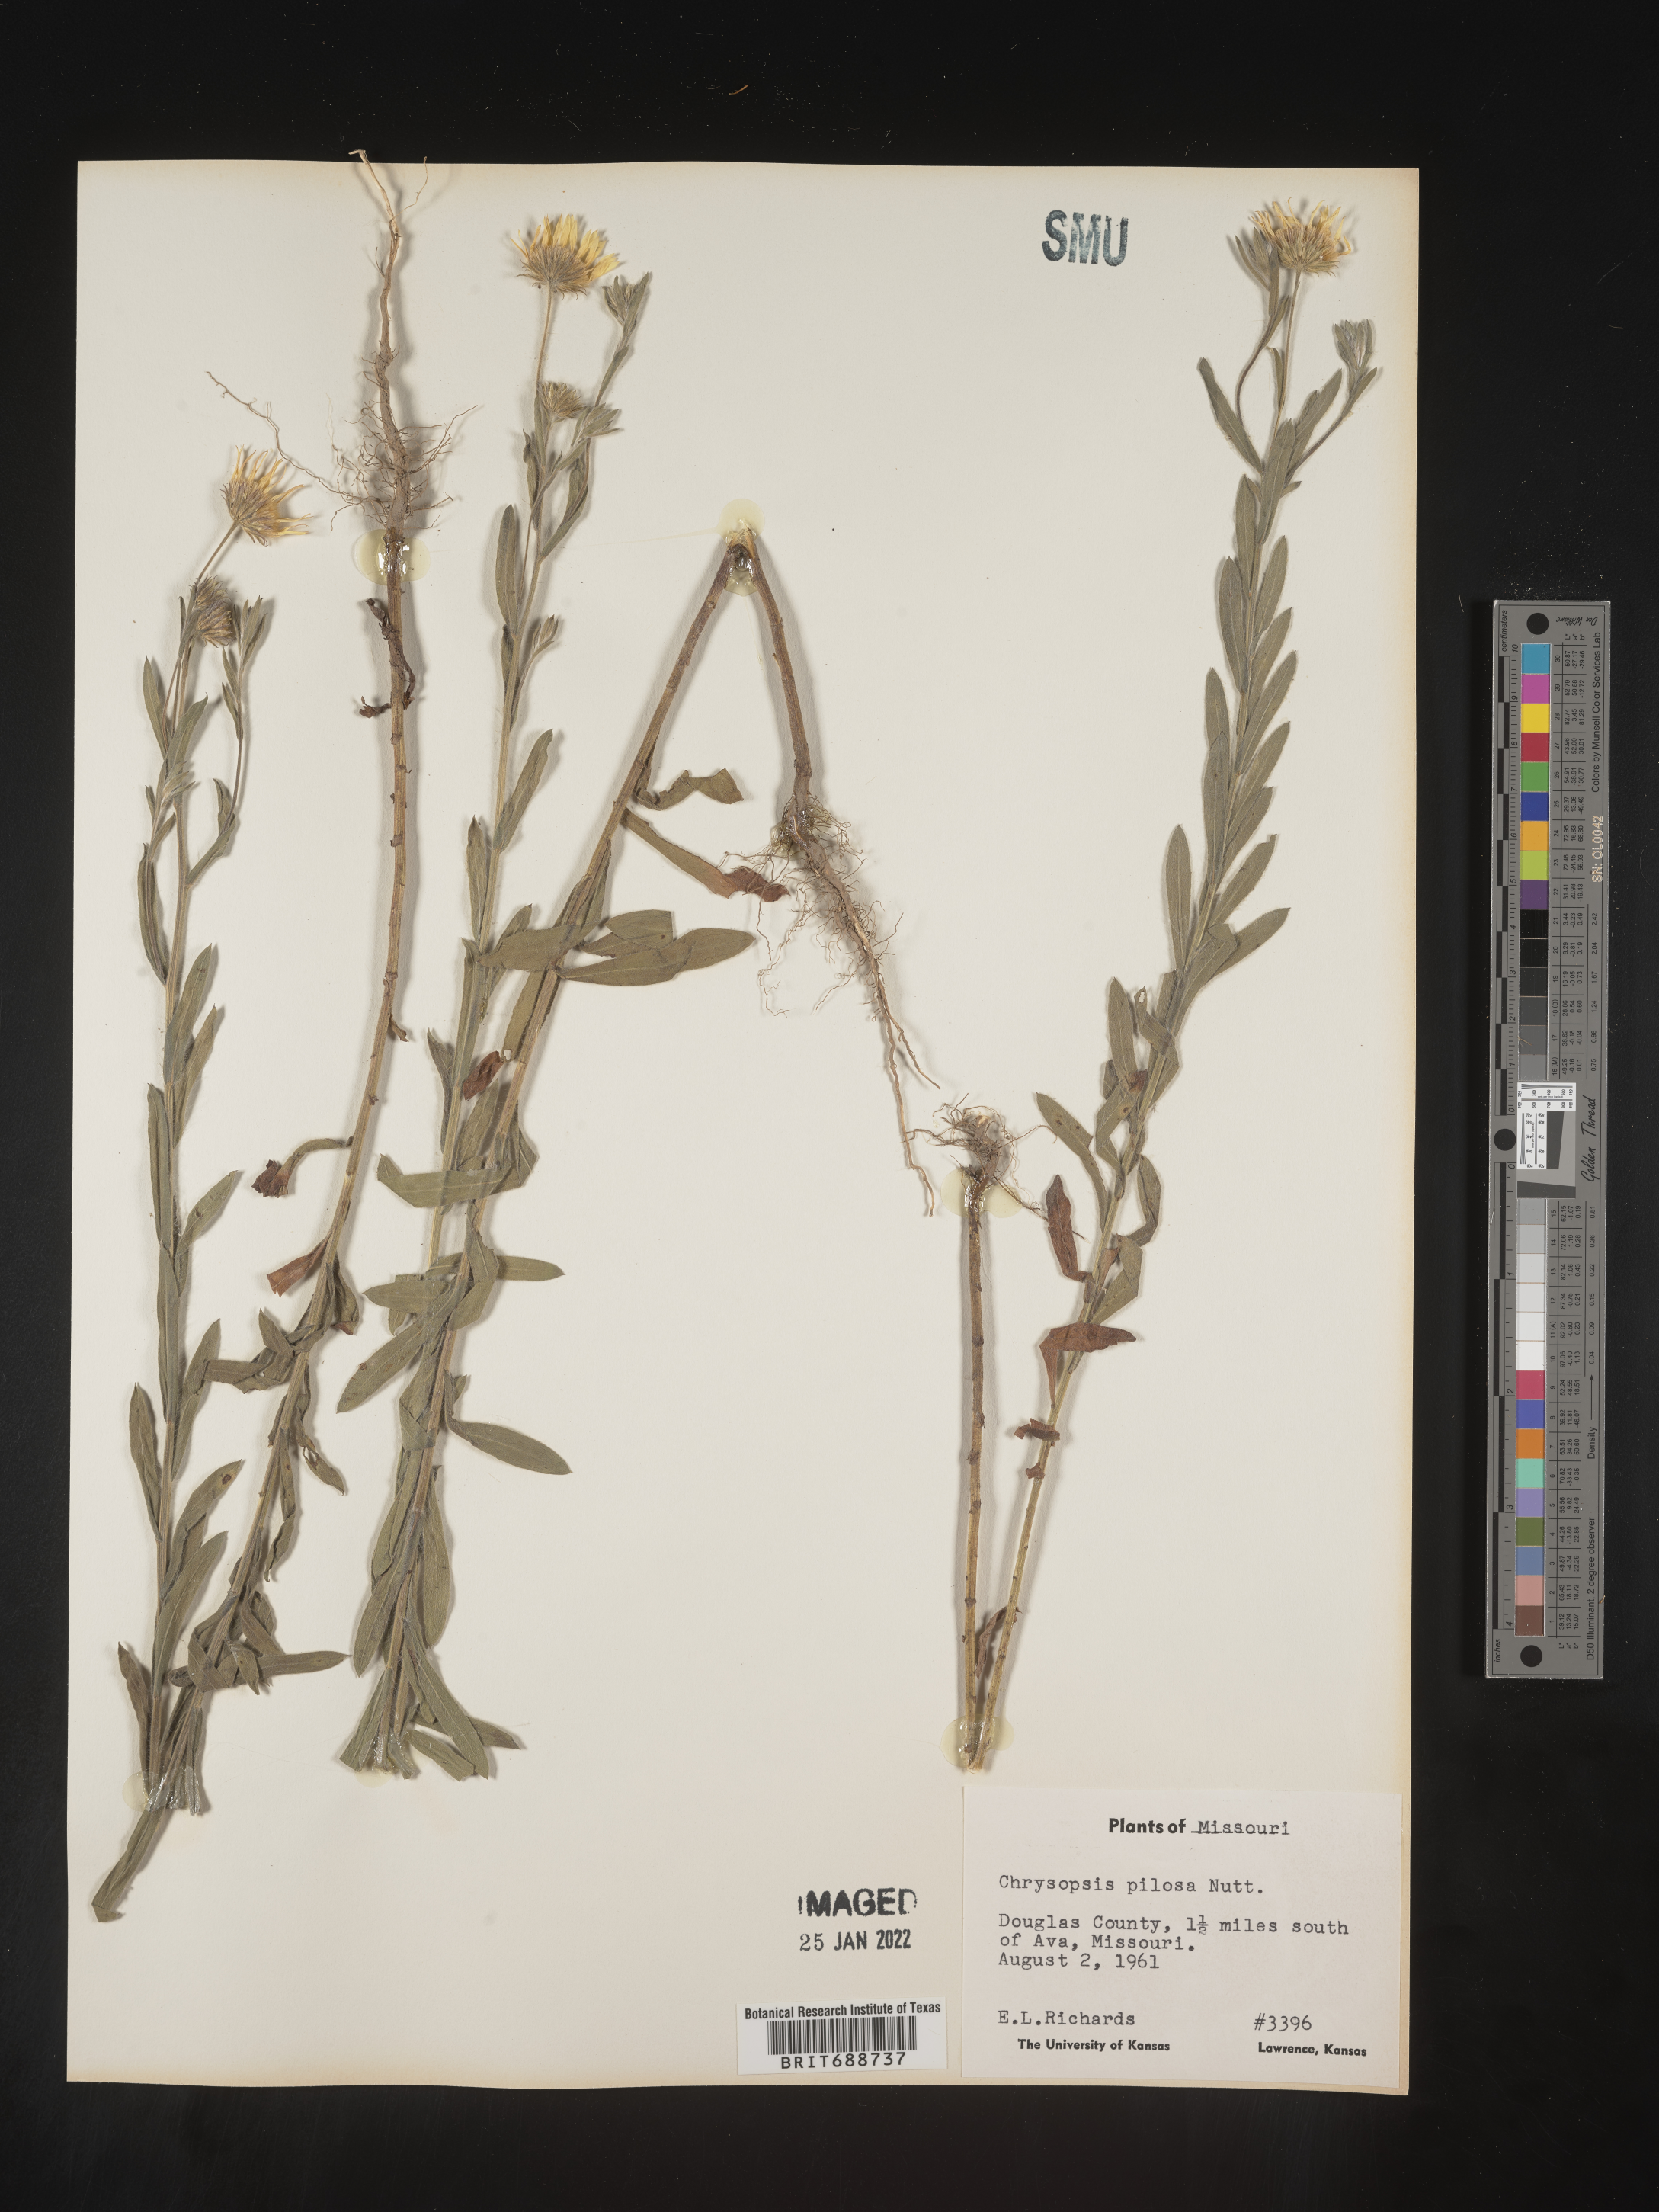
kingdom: Plantae
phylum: Tracheophyta
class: Magnoliopsida
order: Asterales
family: Asteraceae
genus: Bradburia
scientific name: Bradburia pilosa
